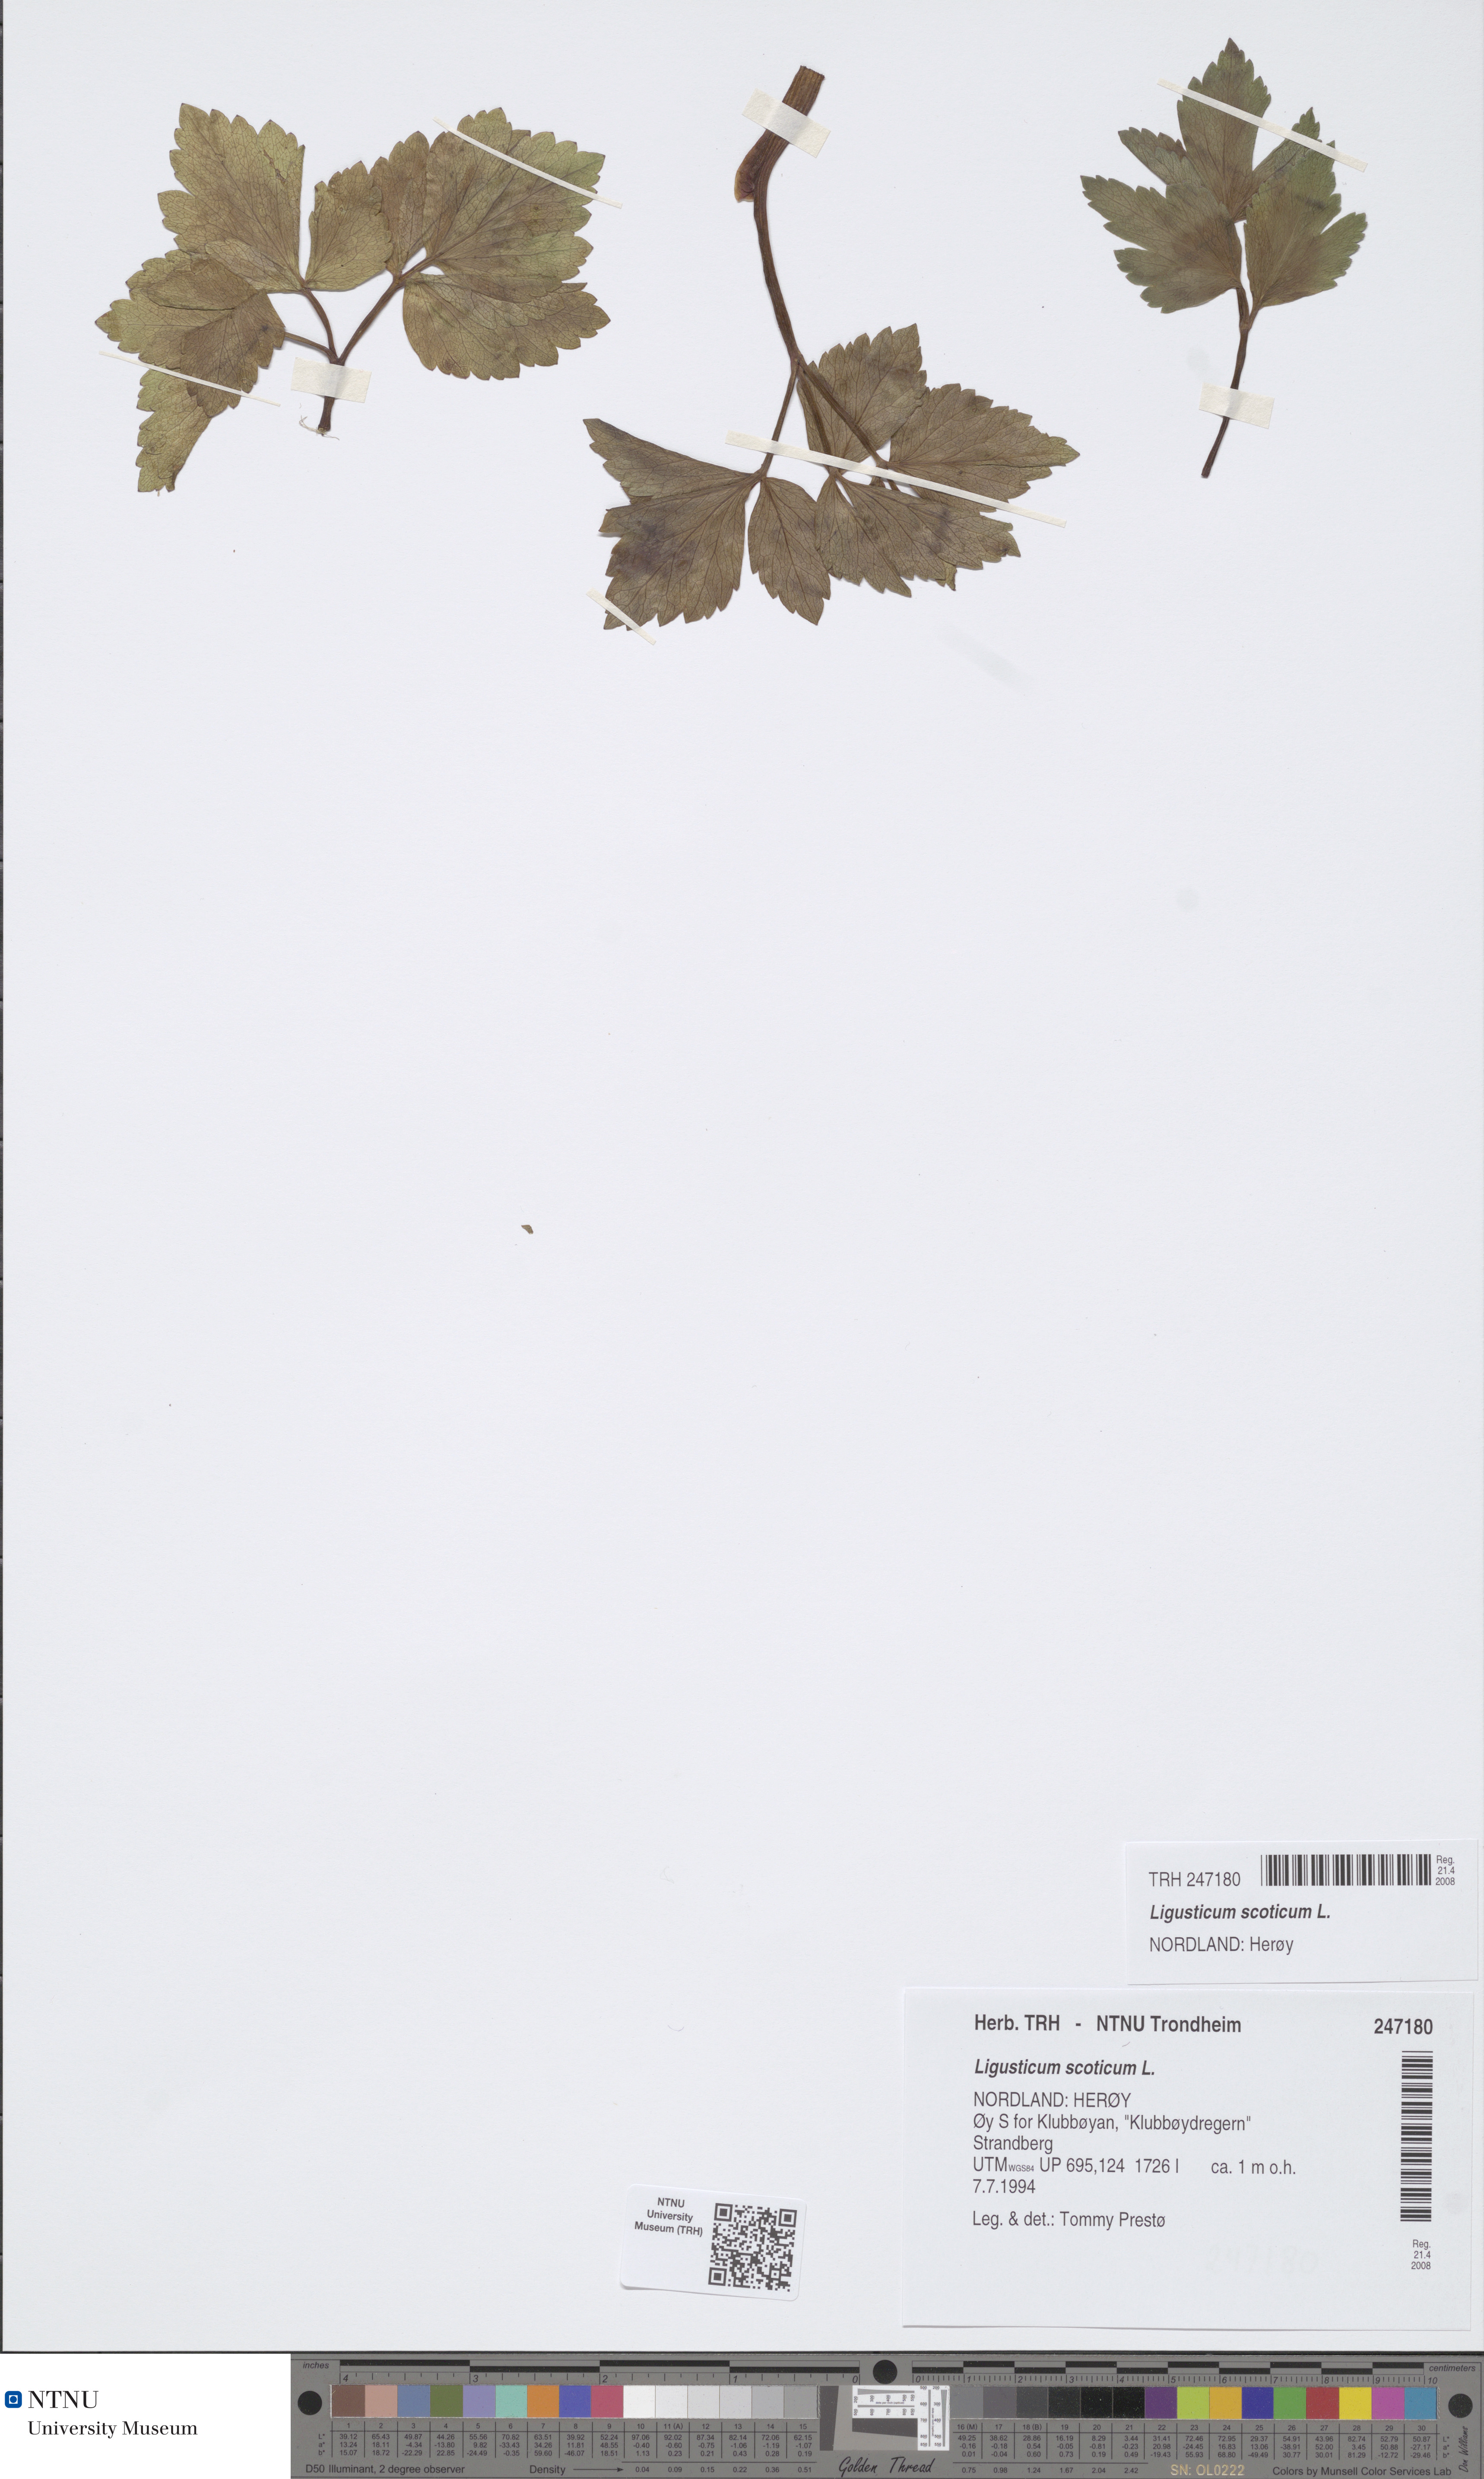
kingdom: Plantae
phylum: Tracheophyta
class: Magnoliopsida
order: Apiales
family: Apiaceae
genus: Ligusticum
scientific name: Ligusticum scothicum
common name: Beach lovage
